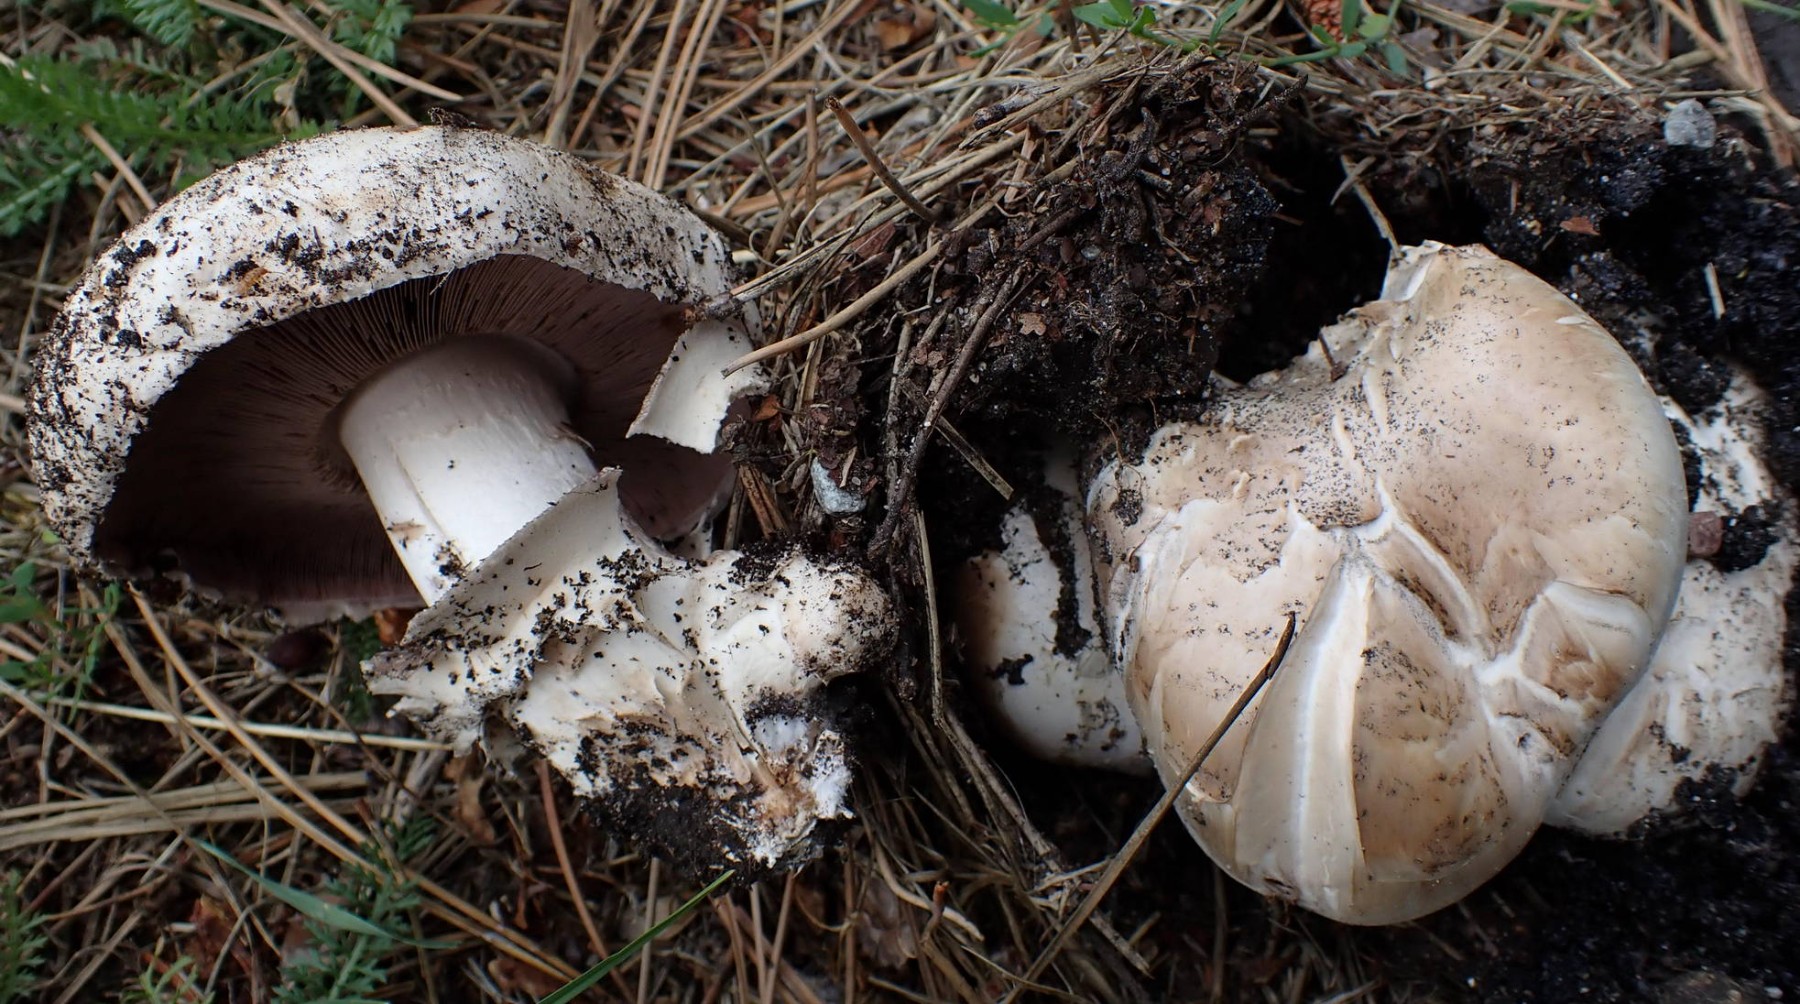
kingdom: Fungi
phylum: Basidiomycota
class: Agaricomycetes
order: Agaricales
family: Agaricaceae
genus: Agaricus
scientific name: Agaricus bitorquis
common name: vej-champignon
